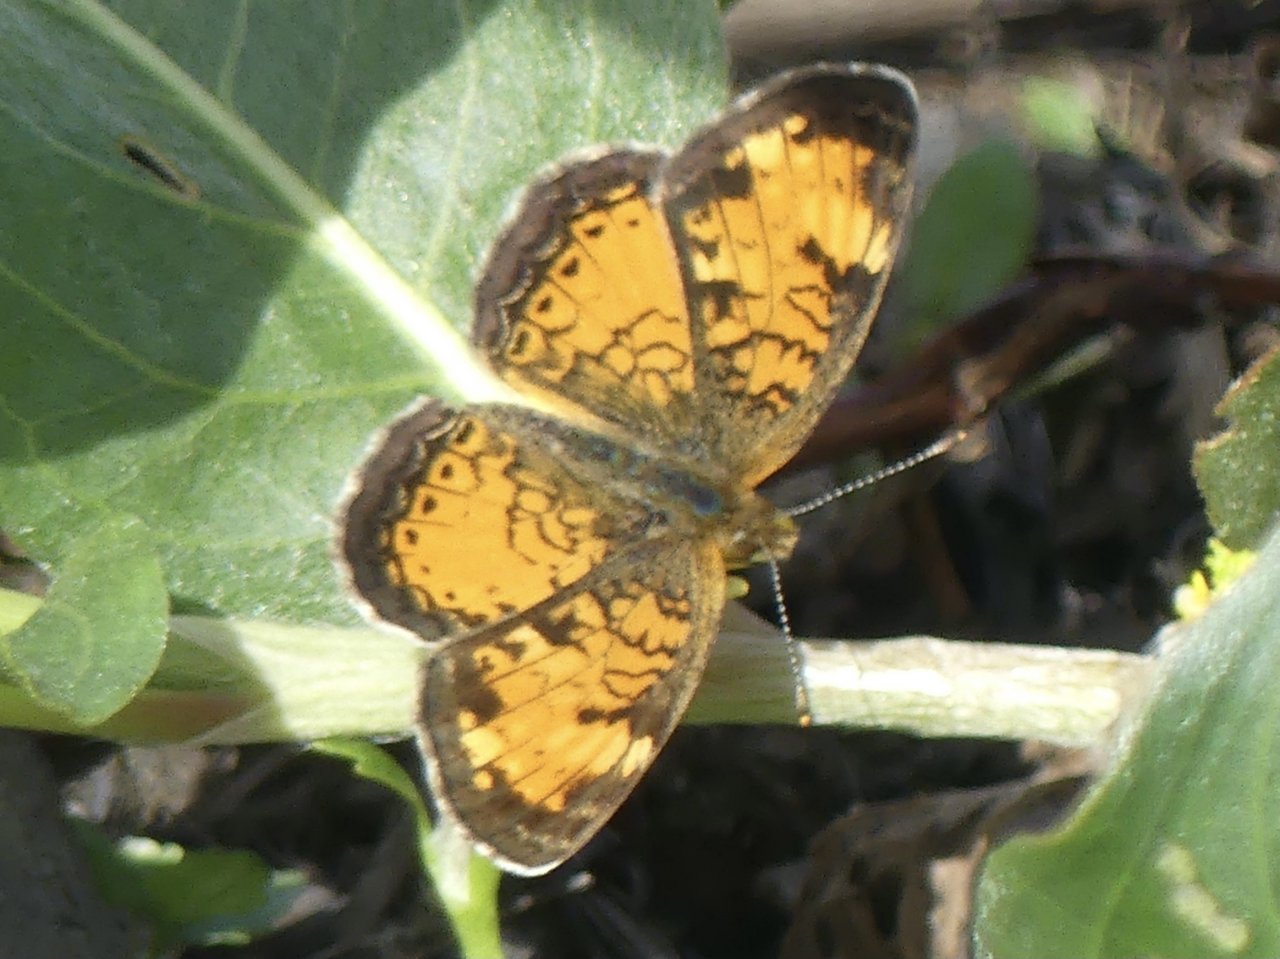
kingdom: Animalia
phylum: Arthropoda
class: Insecta
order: Lepidoptera
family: Nymphalidae
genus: Phyciodes
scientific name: Phyciodes tharos
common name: Northern Crescent
